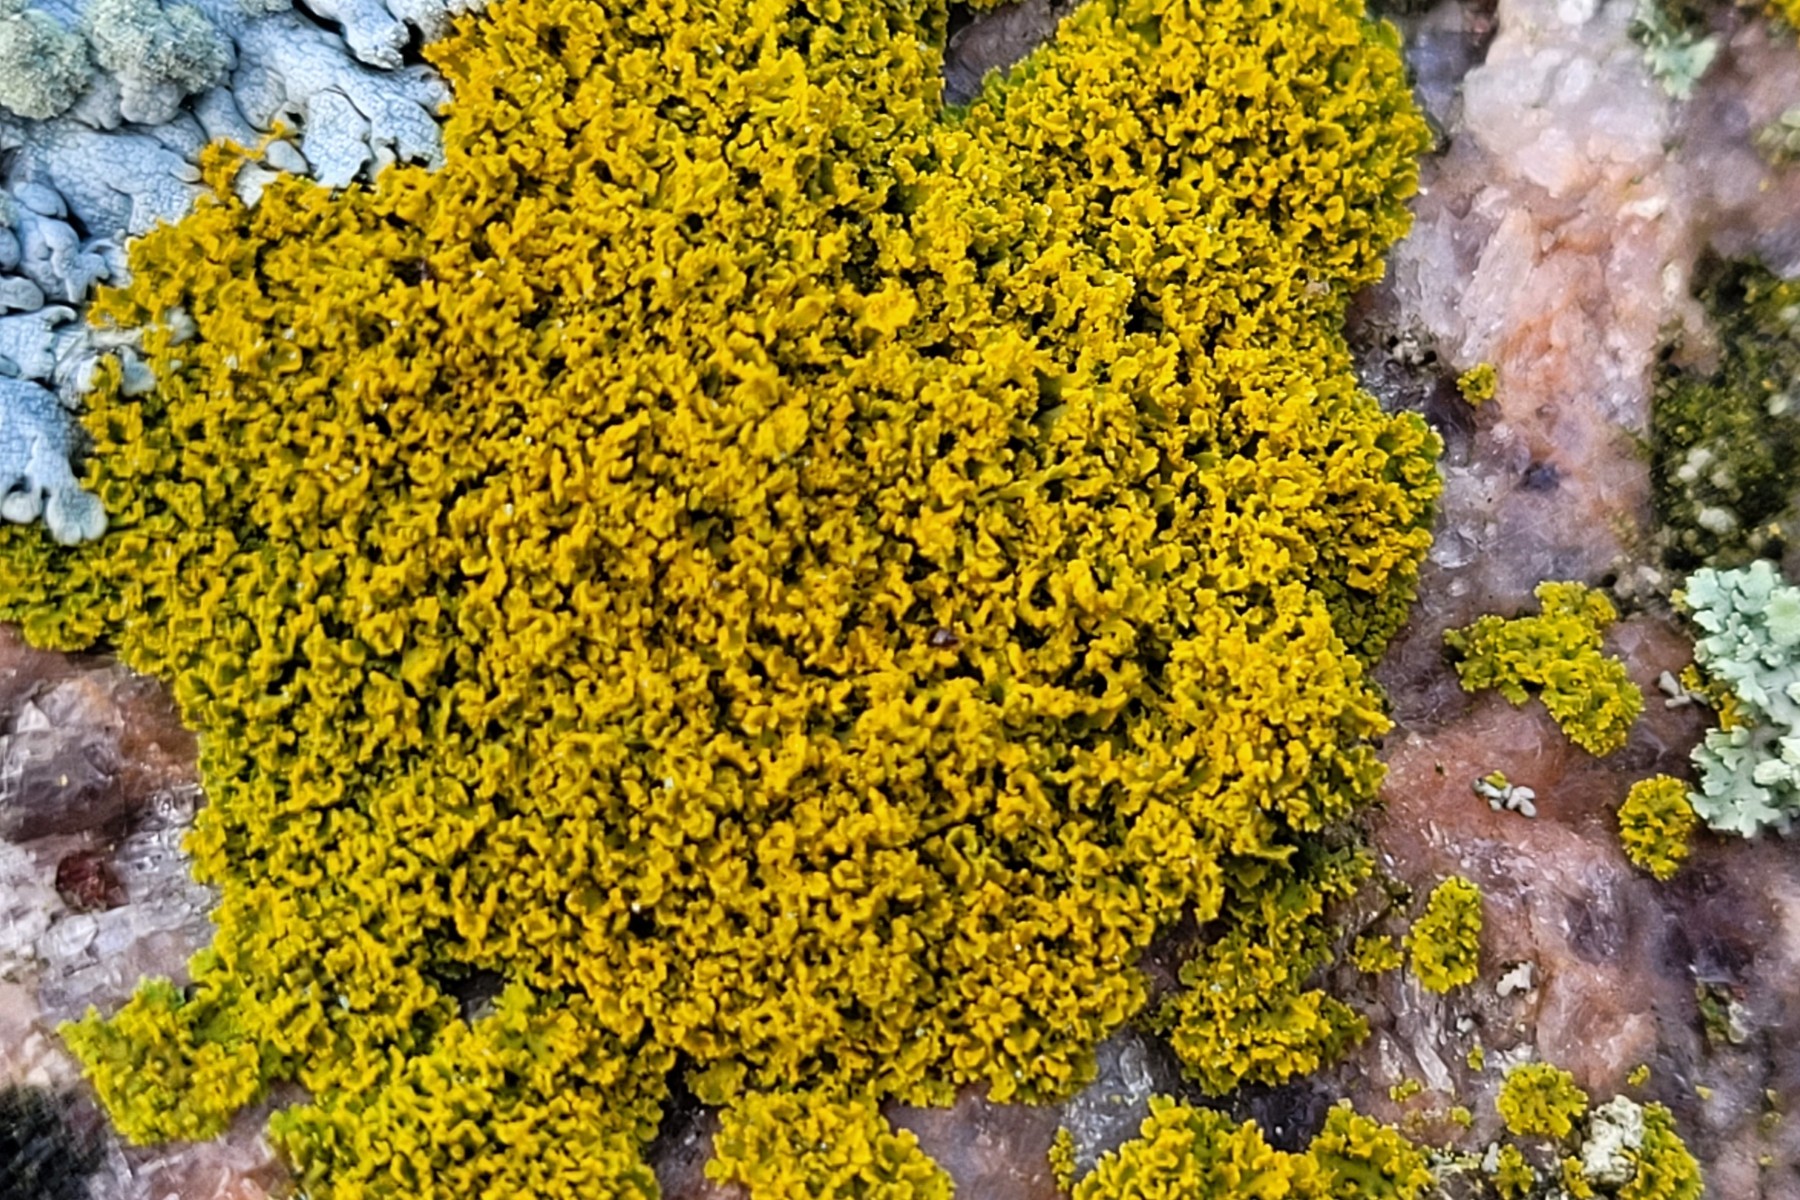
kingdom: Fungi
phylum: Ascomycota
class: Lecanoromycetes
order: Teloschistales
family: Teloschistaceae
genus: Polycauliona
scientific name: Polycauliona candelaria
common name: tue-orangelav
